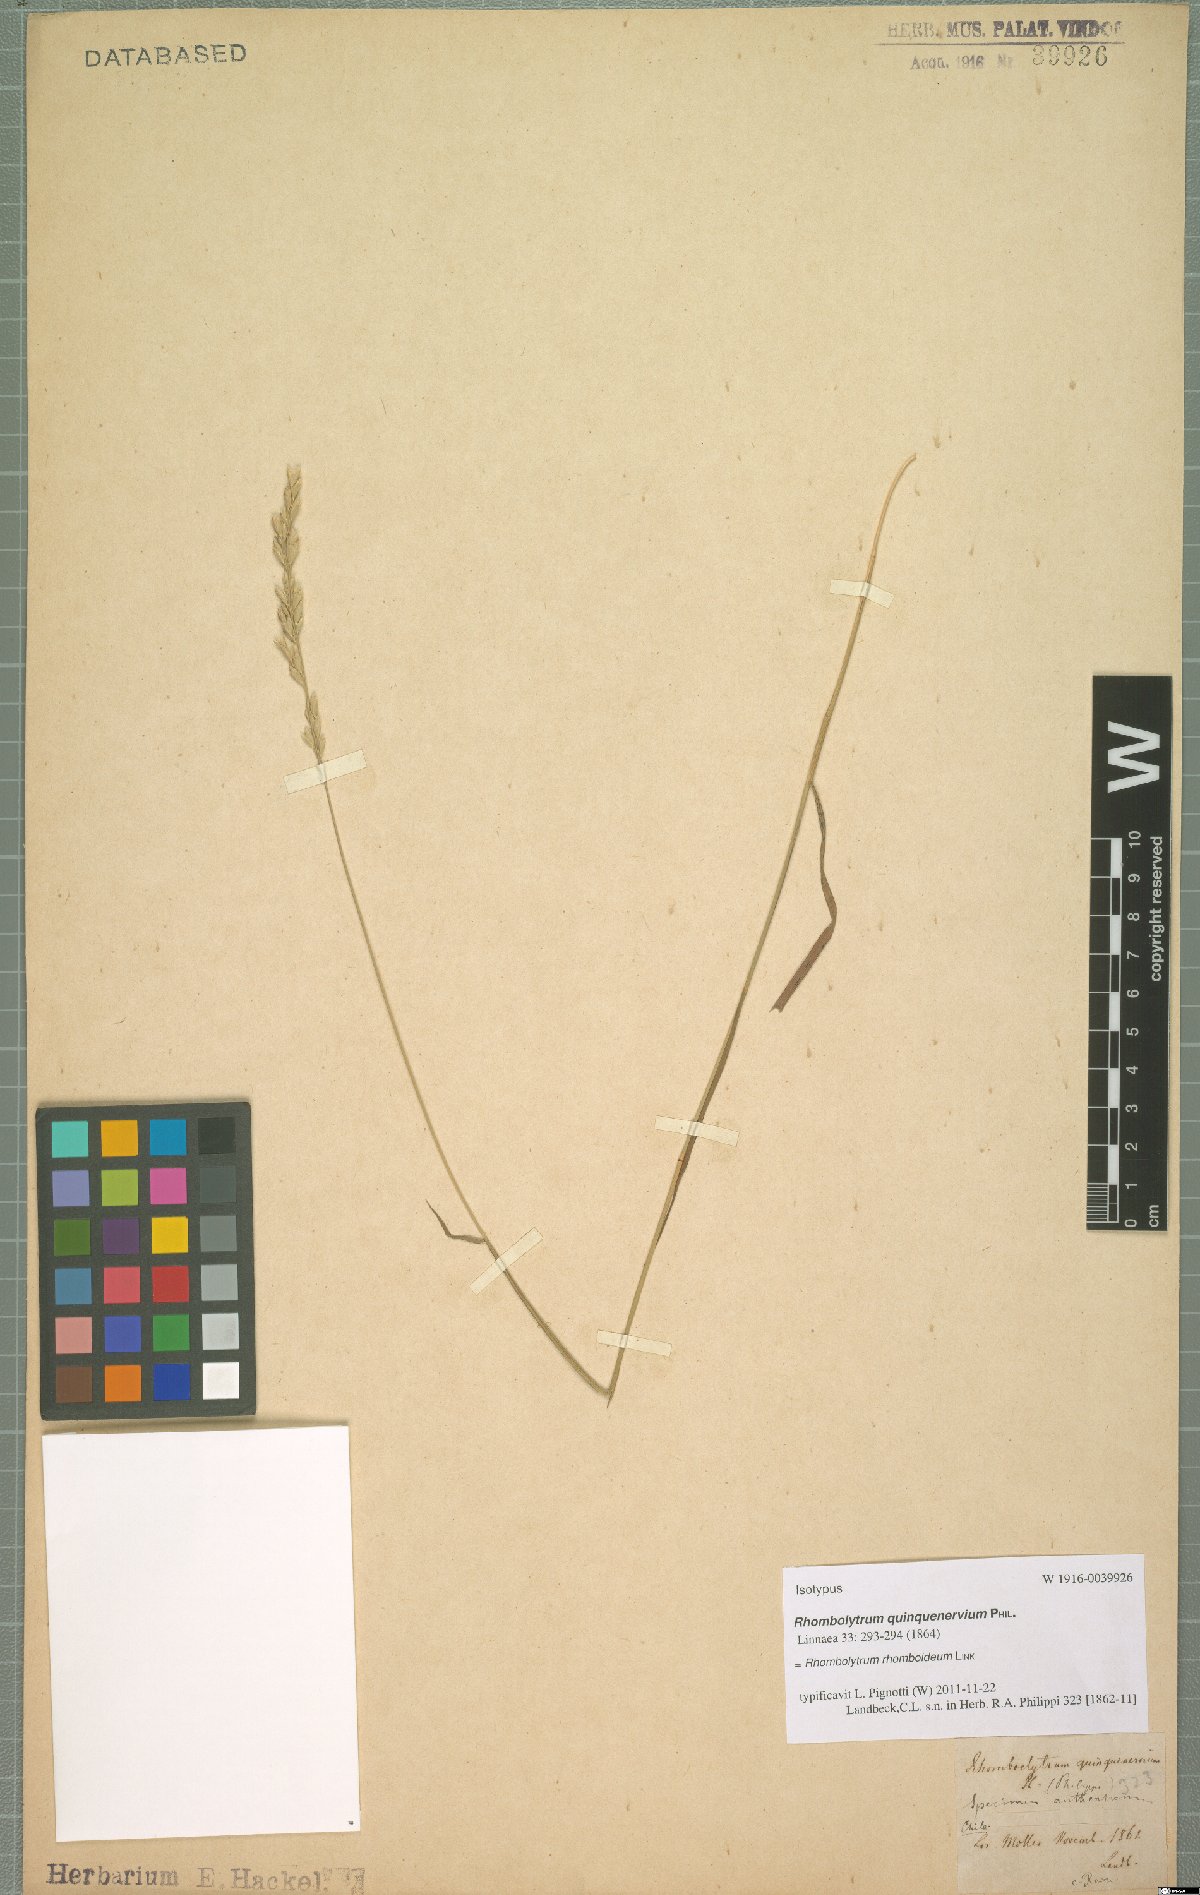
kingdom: Plantae
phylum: Tracheophyta
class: Liliopsida
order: Poales
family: Poaceae
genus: Rhombolytrum
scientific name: Rhombolytrum rhomboideum
